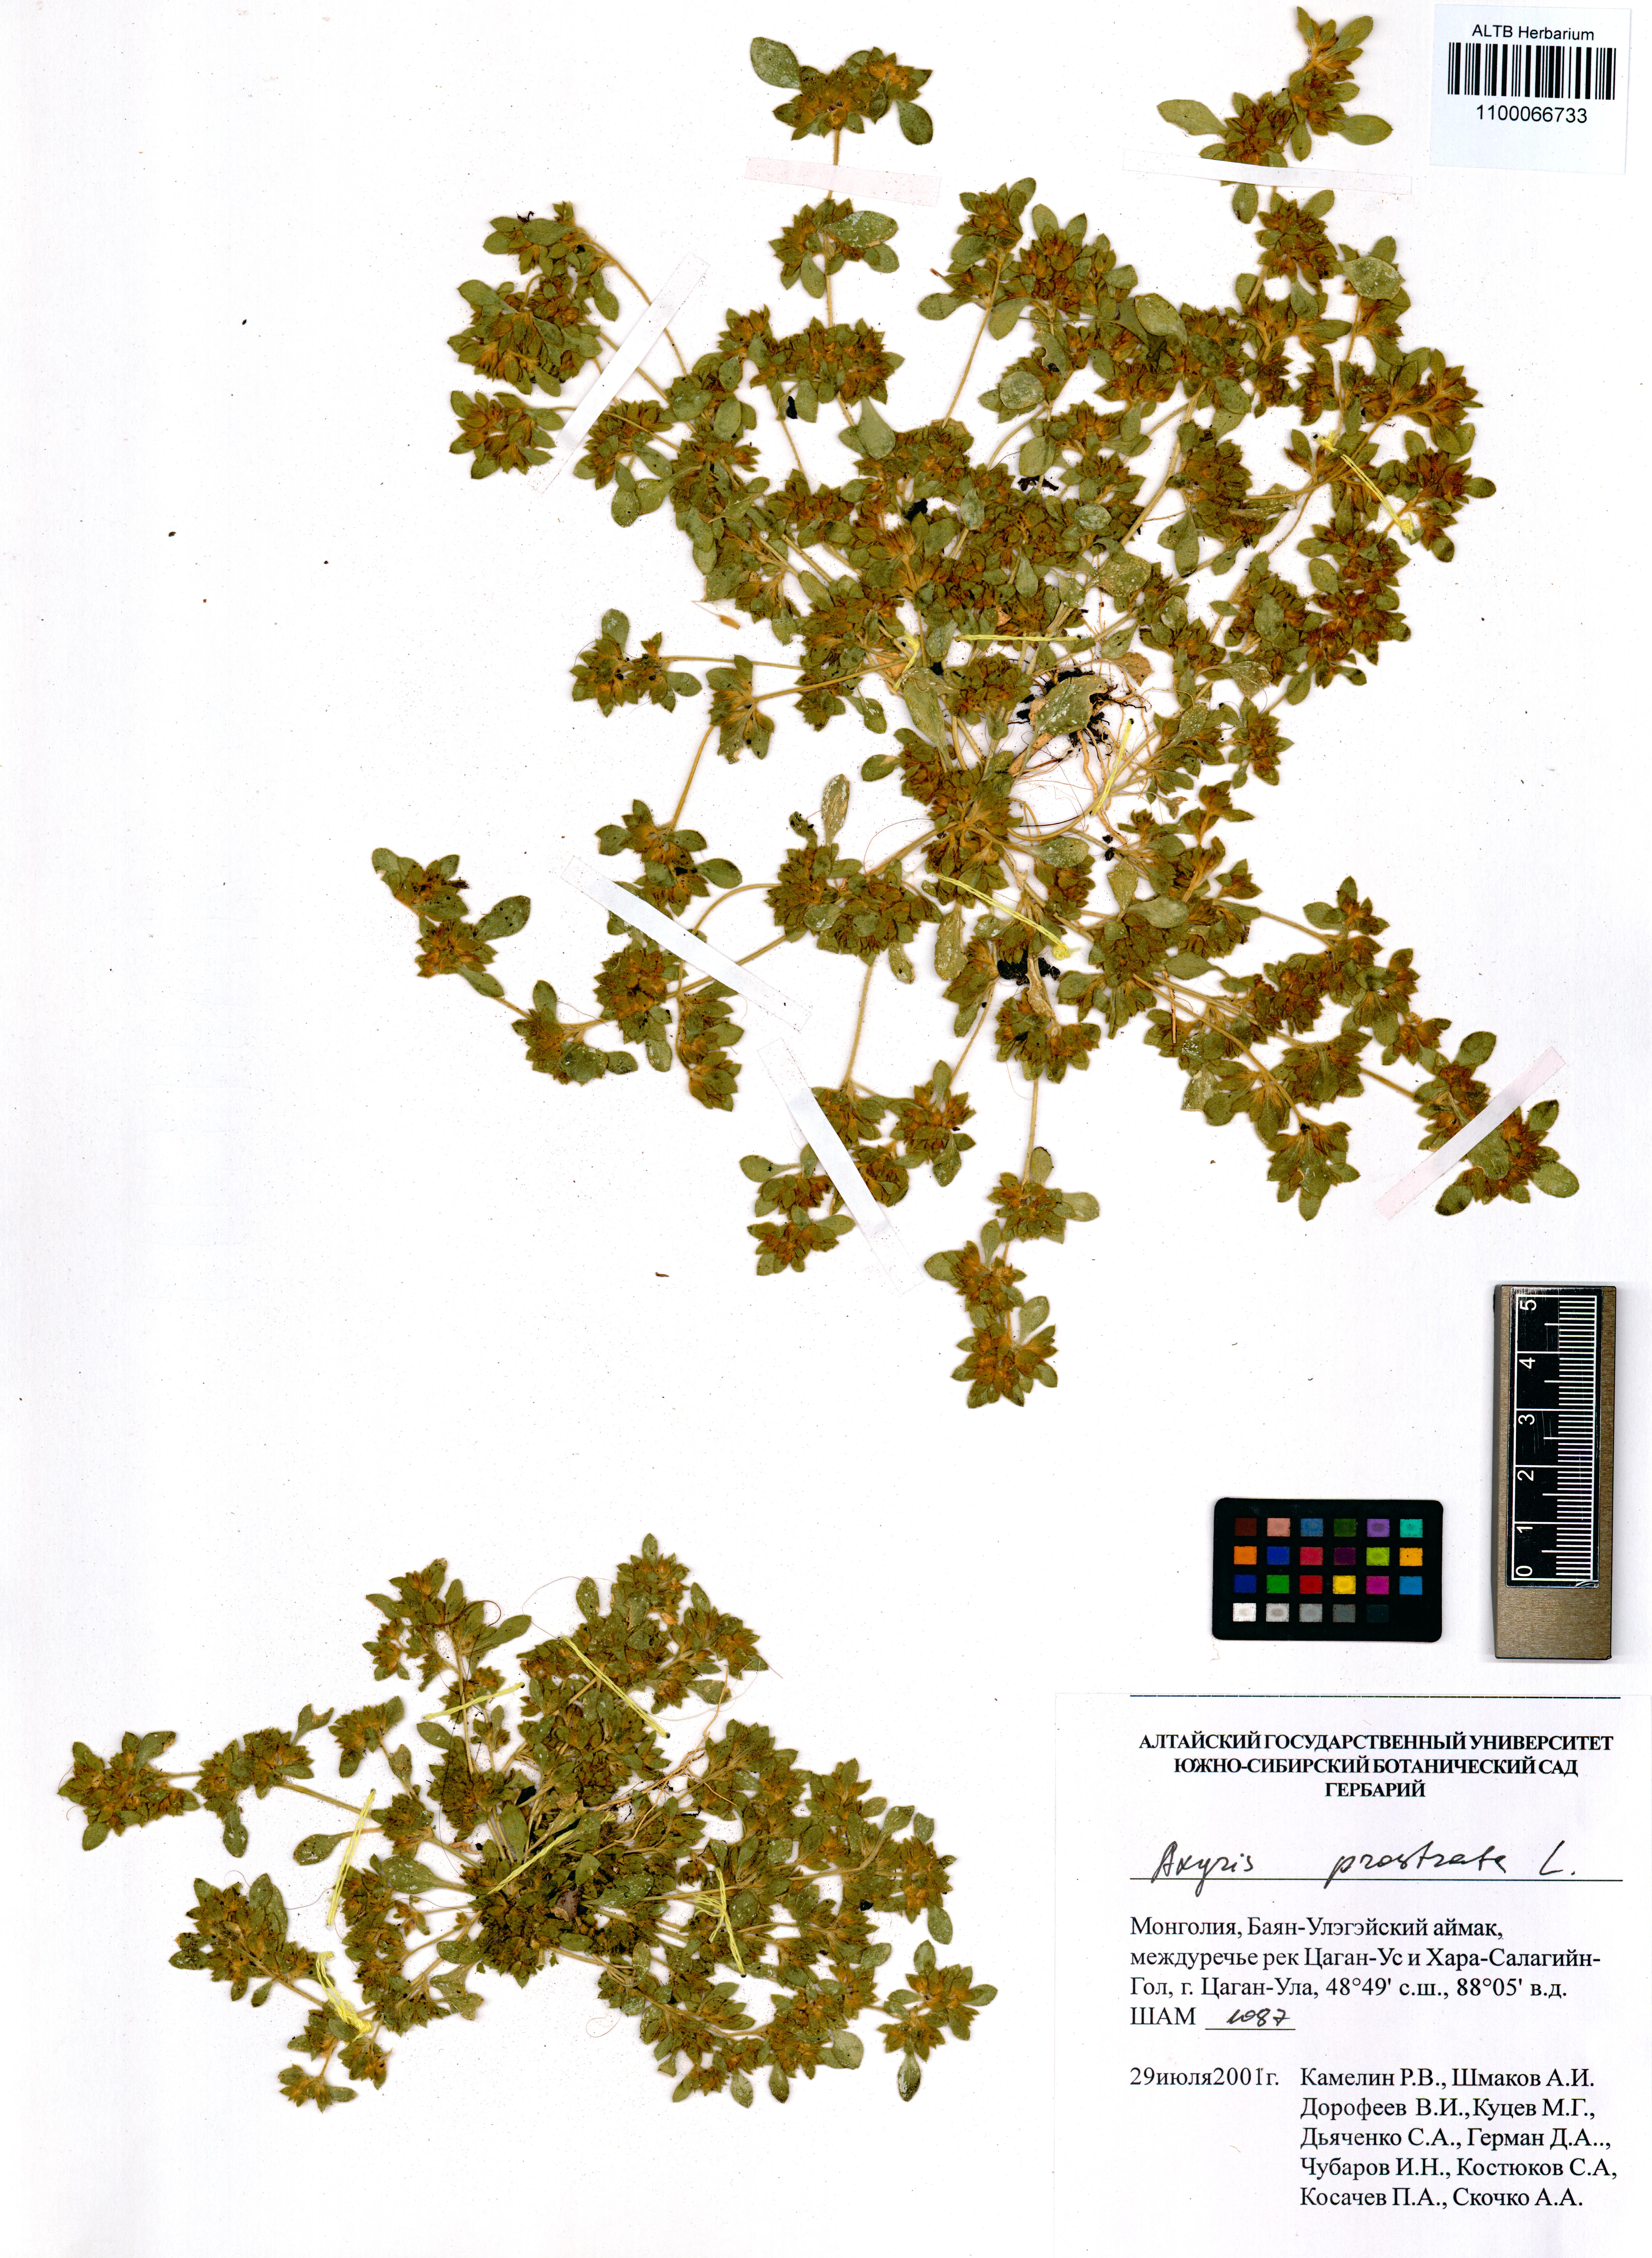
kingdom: Plantae
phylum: Tracheophyta
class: Magnoliopsida
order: Caryophyllales
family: Amaranthaceae
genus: Axyris
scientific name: Axyris prostrata
